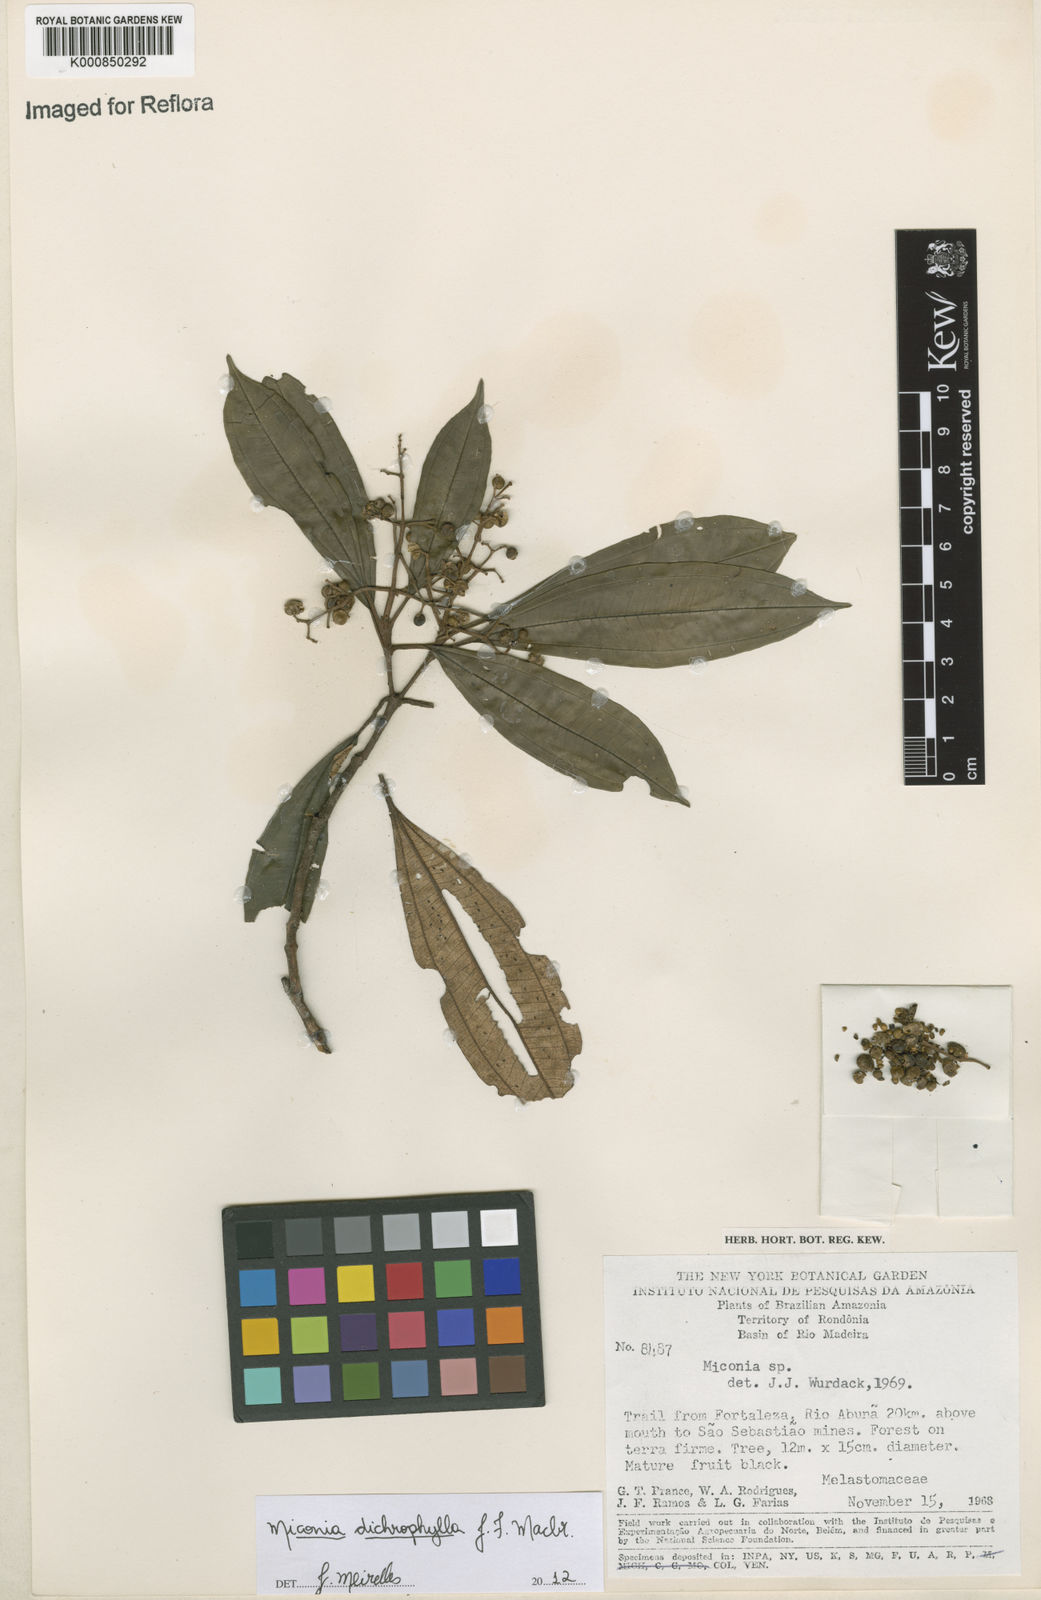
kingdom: Plantae
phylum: Tracheophyta
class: Magnoliopsida
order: Myrtales
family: Melastomataceae
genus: Miconia
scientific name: Miconia
